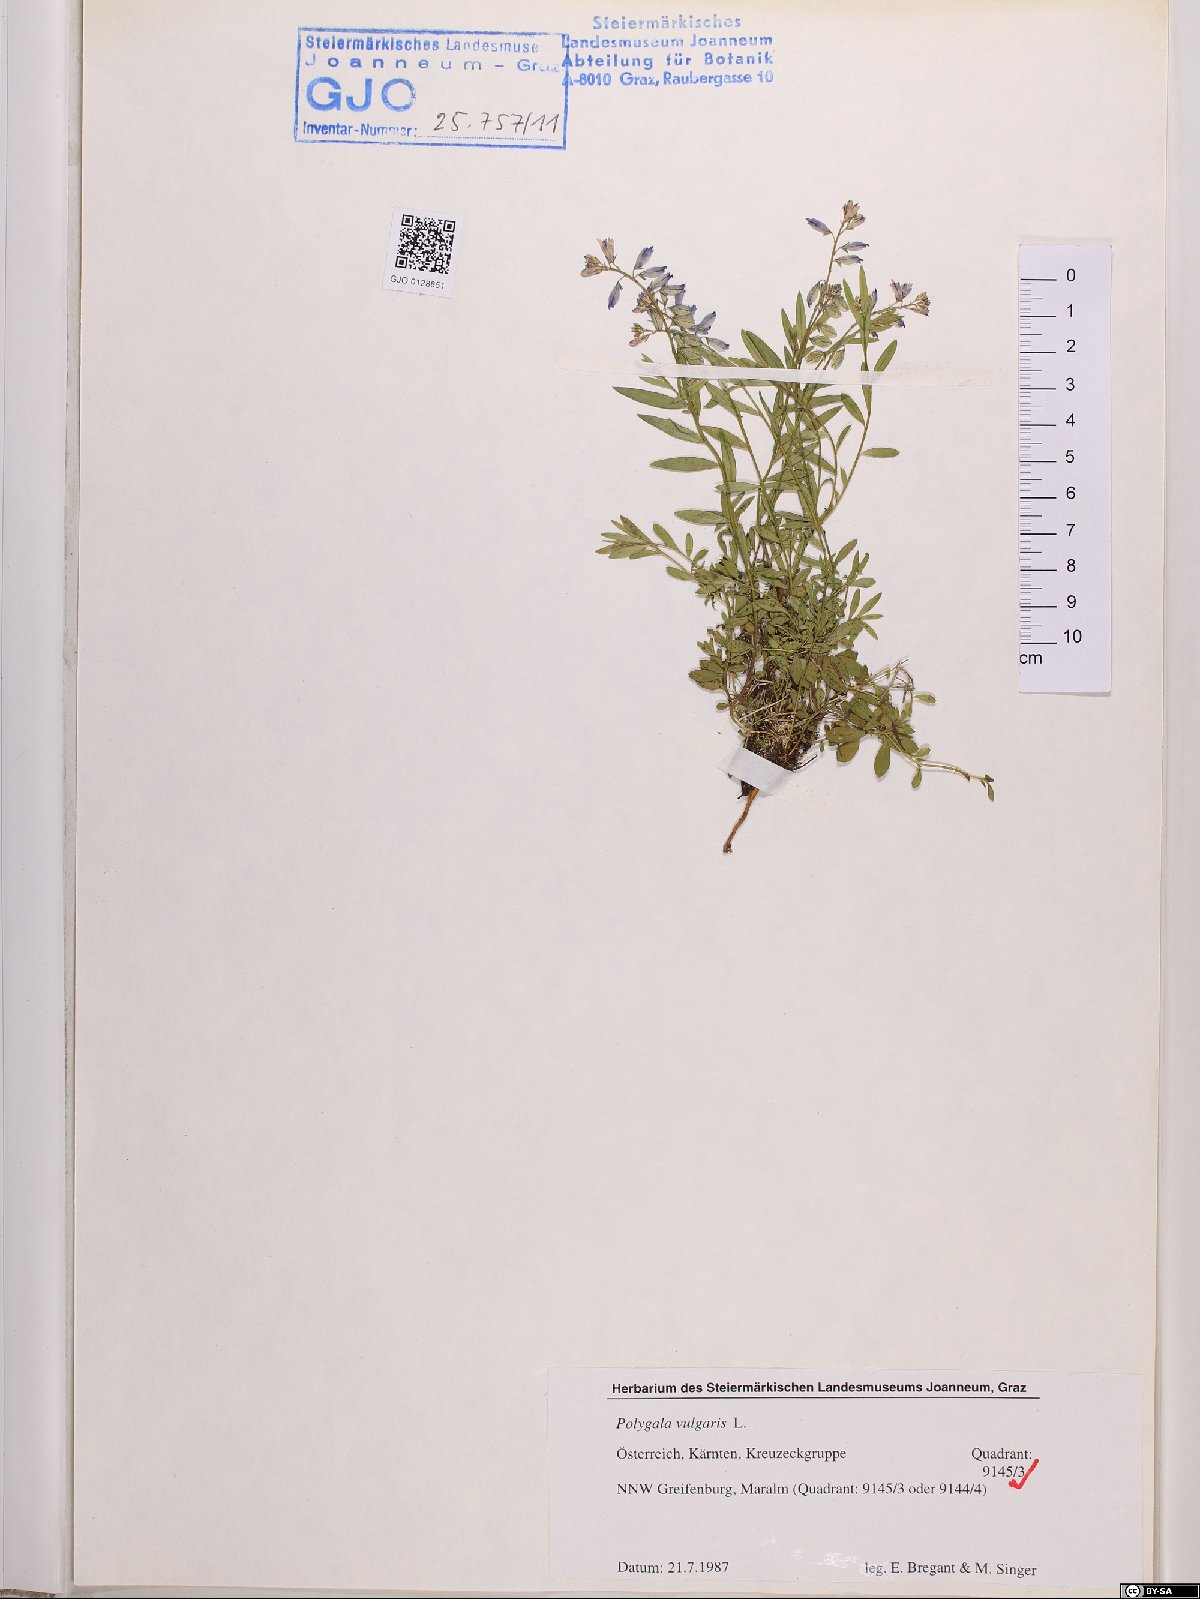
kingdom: Plantae
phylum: Tracheophyta
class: Magnoliopsida
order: Fabales
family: Polygalaceae
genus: Polygala
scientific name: Polygala vulgaris
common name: Common milkwort
